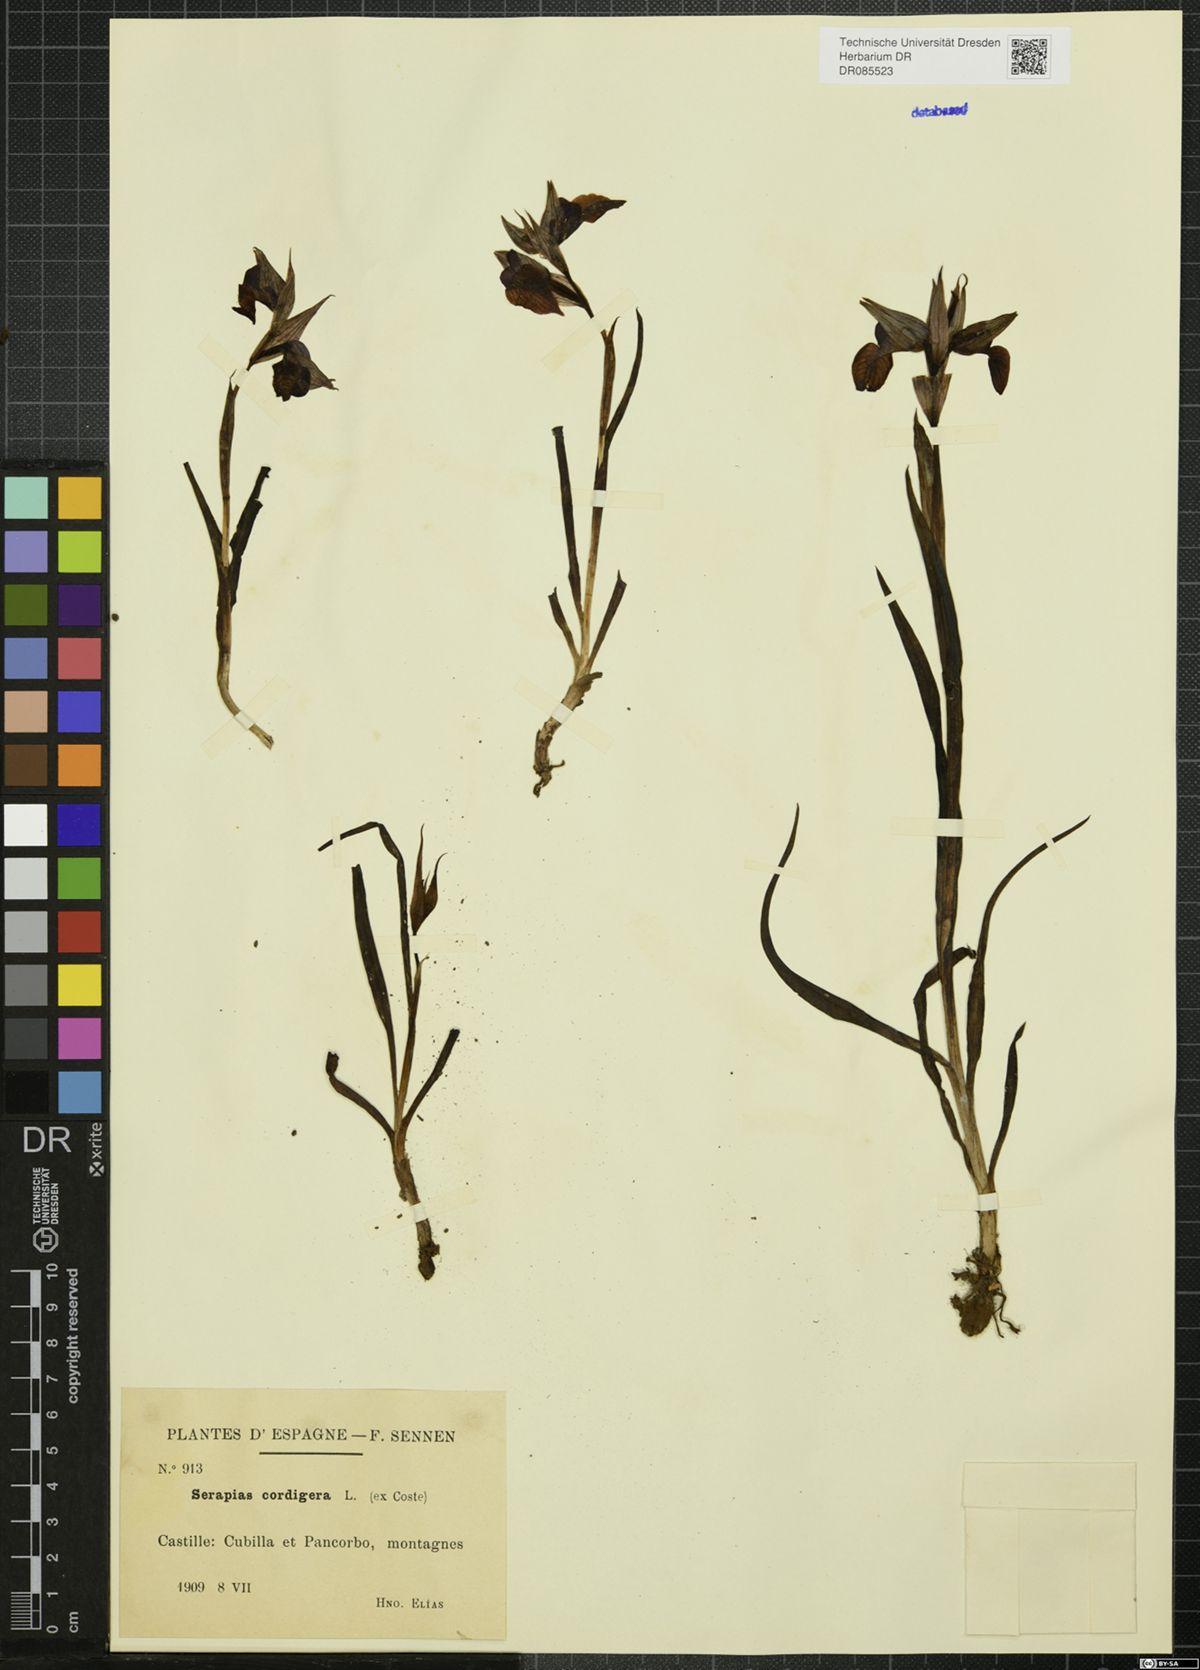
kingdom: Plantae
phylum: Tracheophyta
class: Liliopsida
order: Asparagales
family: Orchidaceae
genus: Serapias
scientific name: Serapias cordigera
